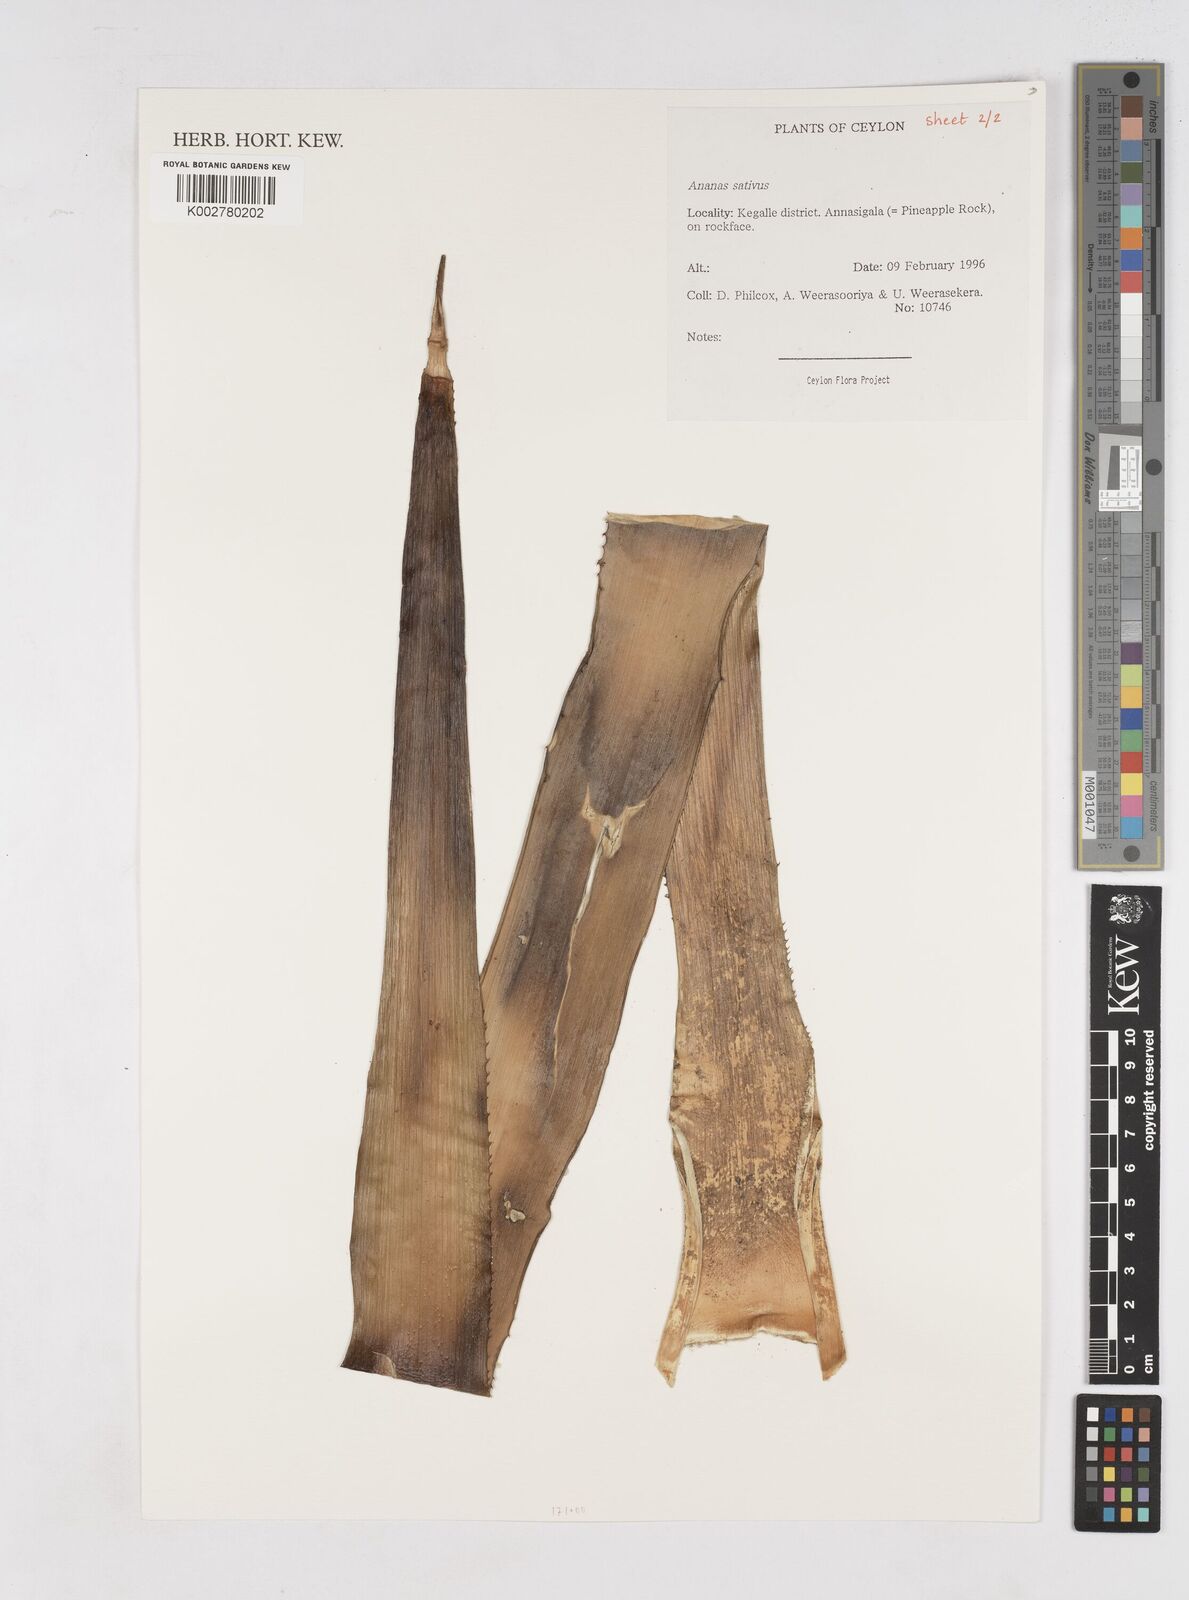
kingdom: Plantae
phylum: Tracheophyta
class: Liliopsida
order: Poales
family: Bromeliaceae
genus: Ananas
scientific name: Ananas comosus
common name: Pineapple
